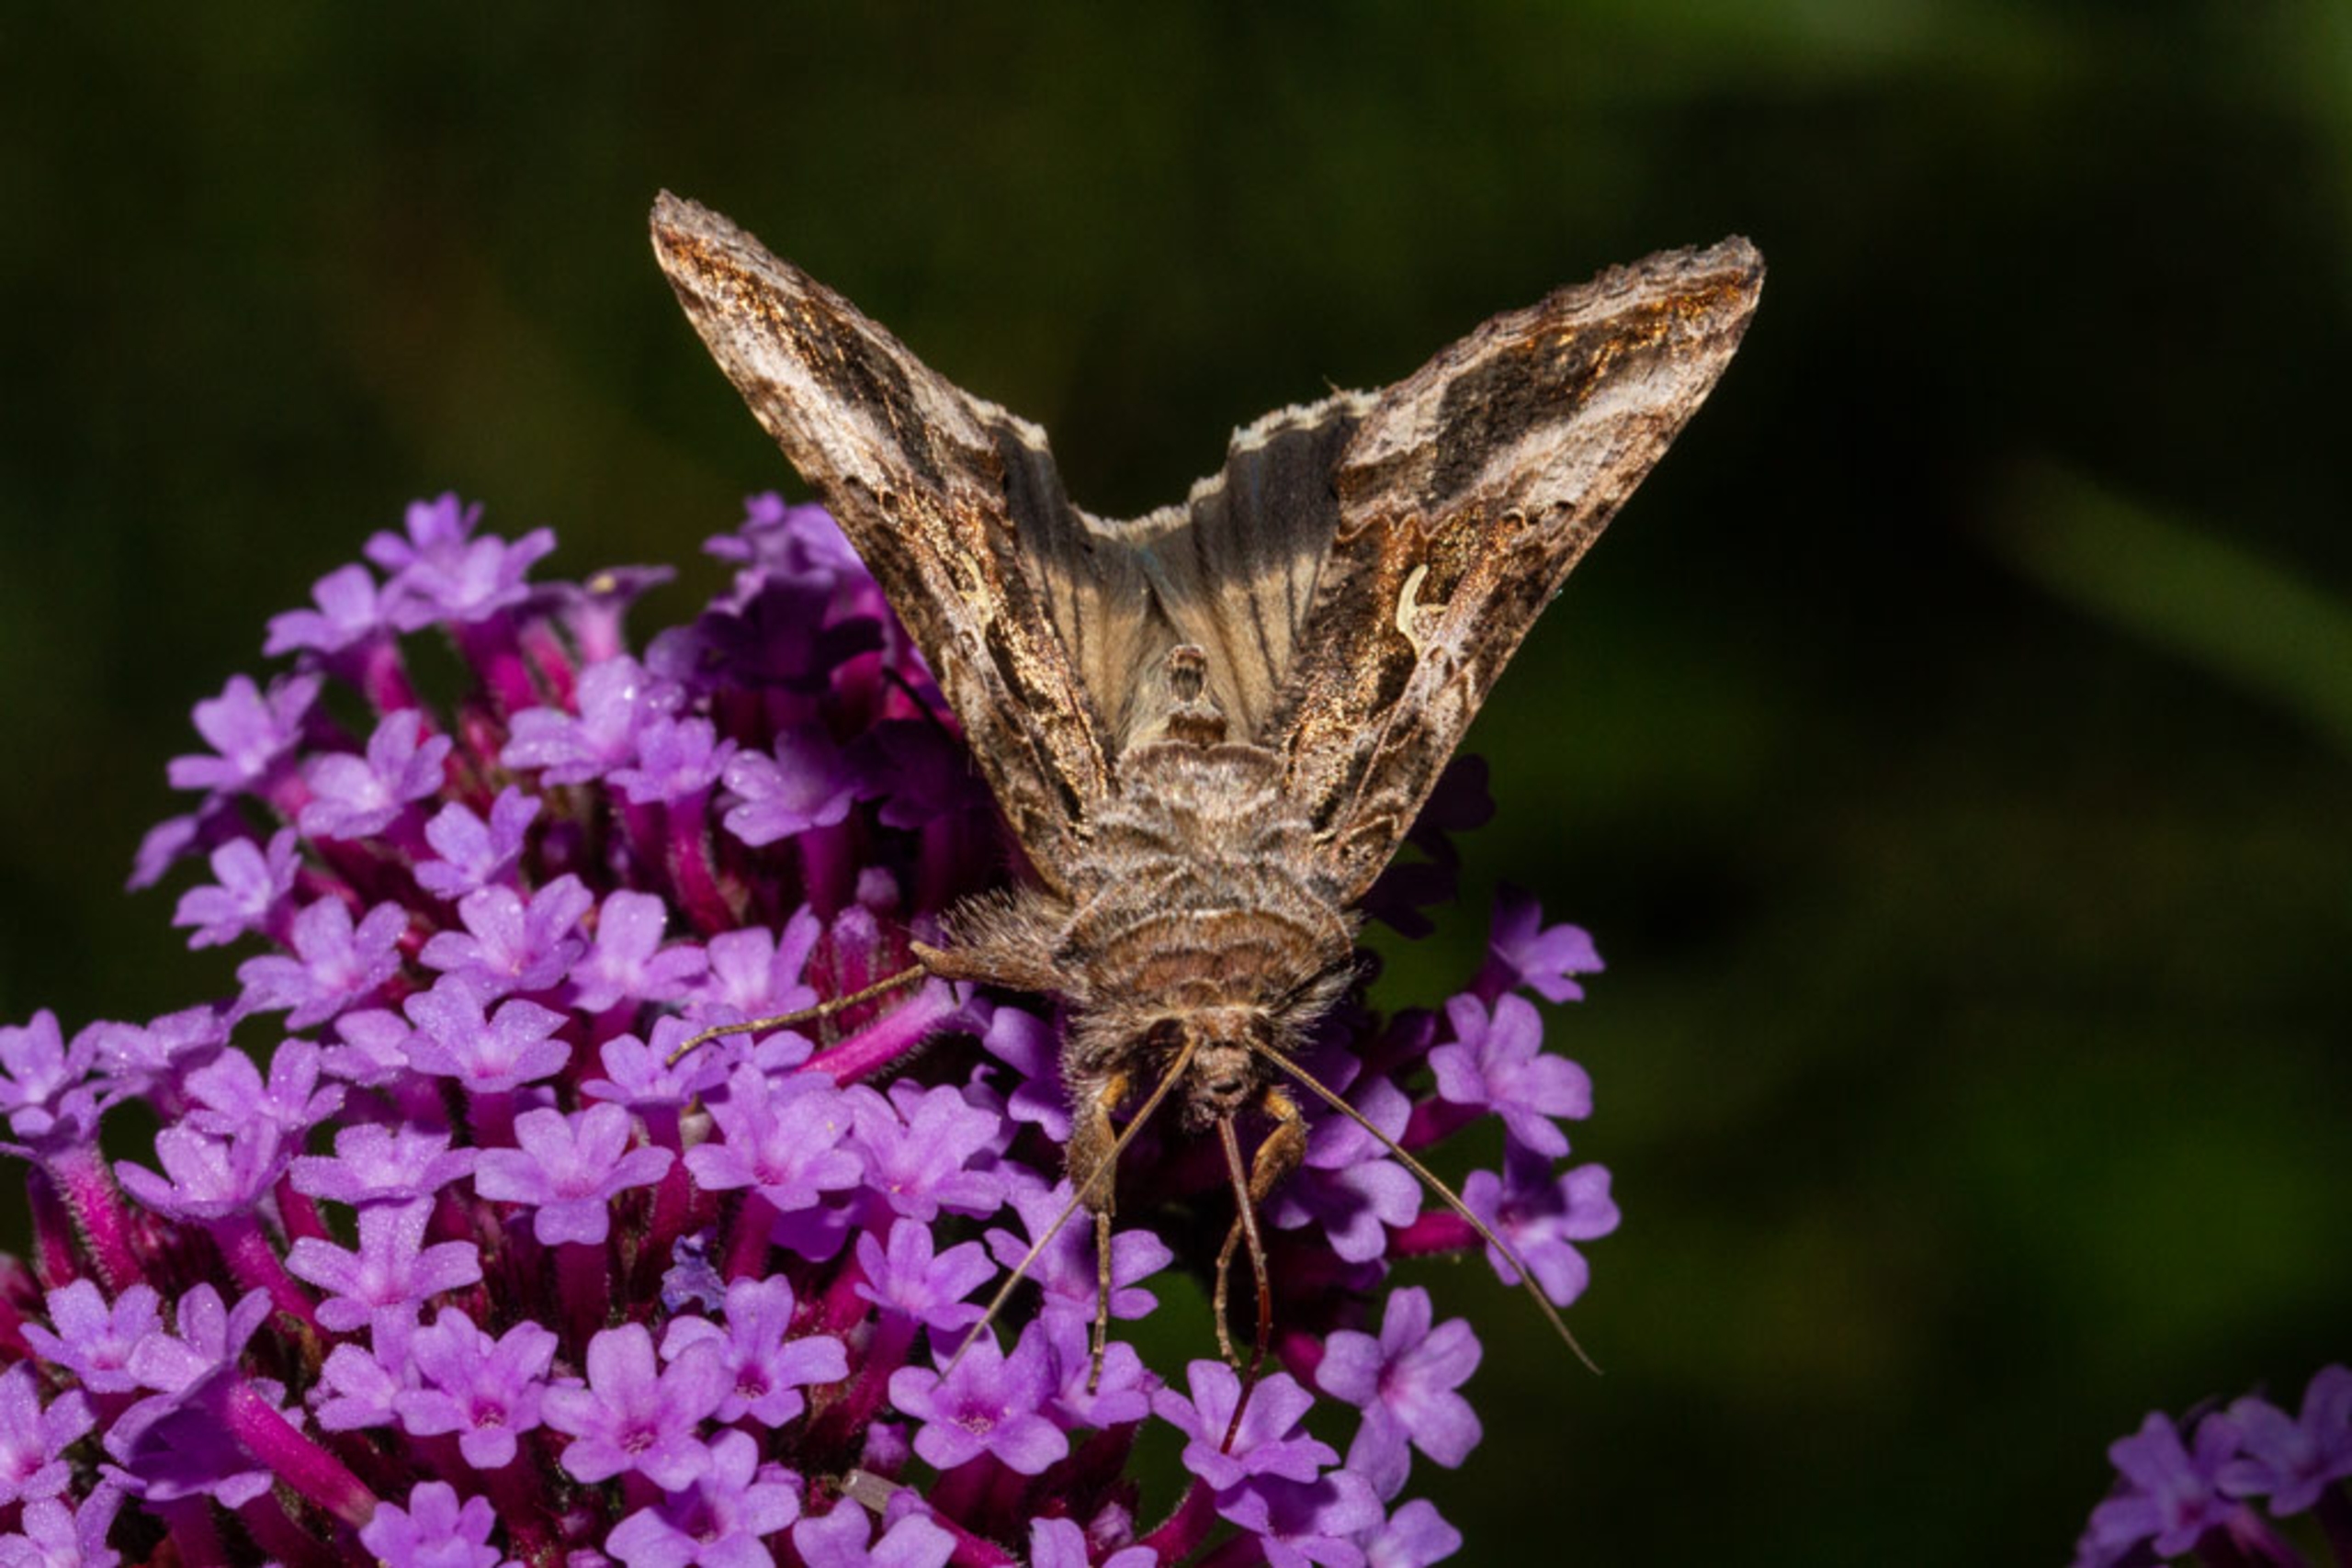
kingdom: Animalia
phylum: Arthropoda
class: Insecta
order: Lepidoptera
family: Noctuidae
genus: Autographa
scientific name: Autographa gamma
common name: Gammaugle
